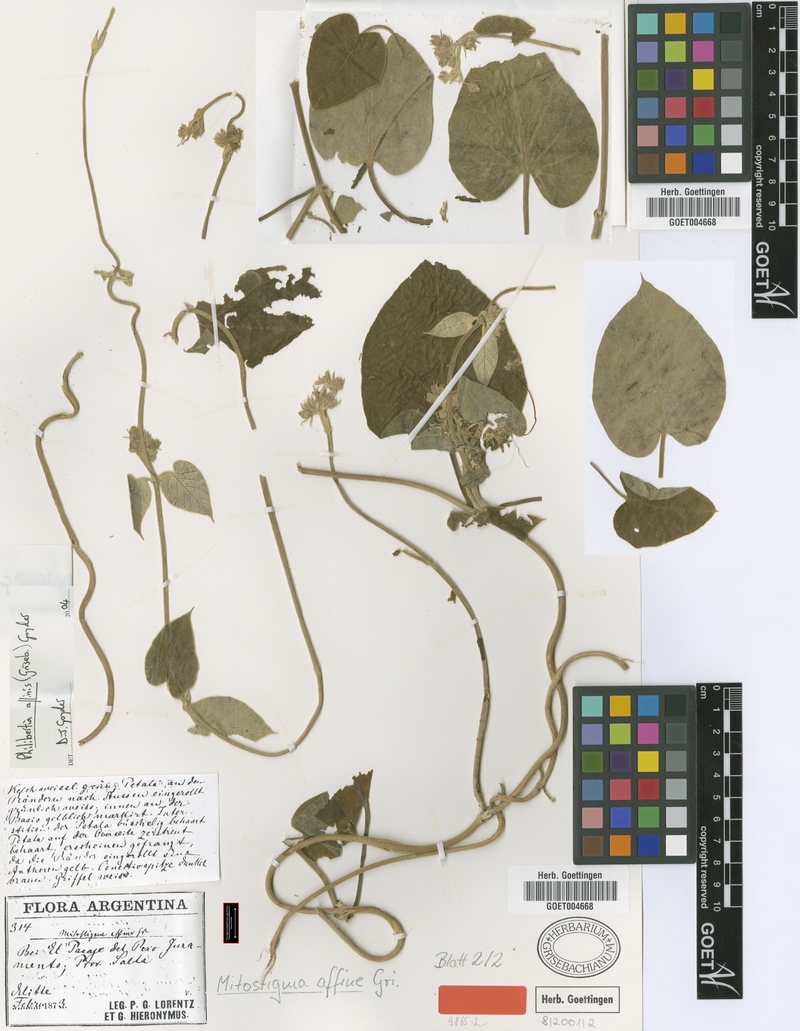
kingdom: Plantae
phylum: Tracheophyta
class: Magnoliopsida
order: Gentianales
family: Apocynaceae
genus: Philibertia
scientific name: Philibertia affinis
